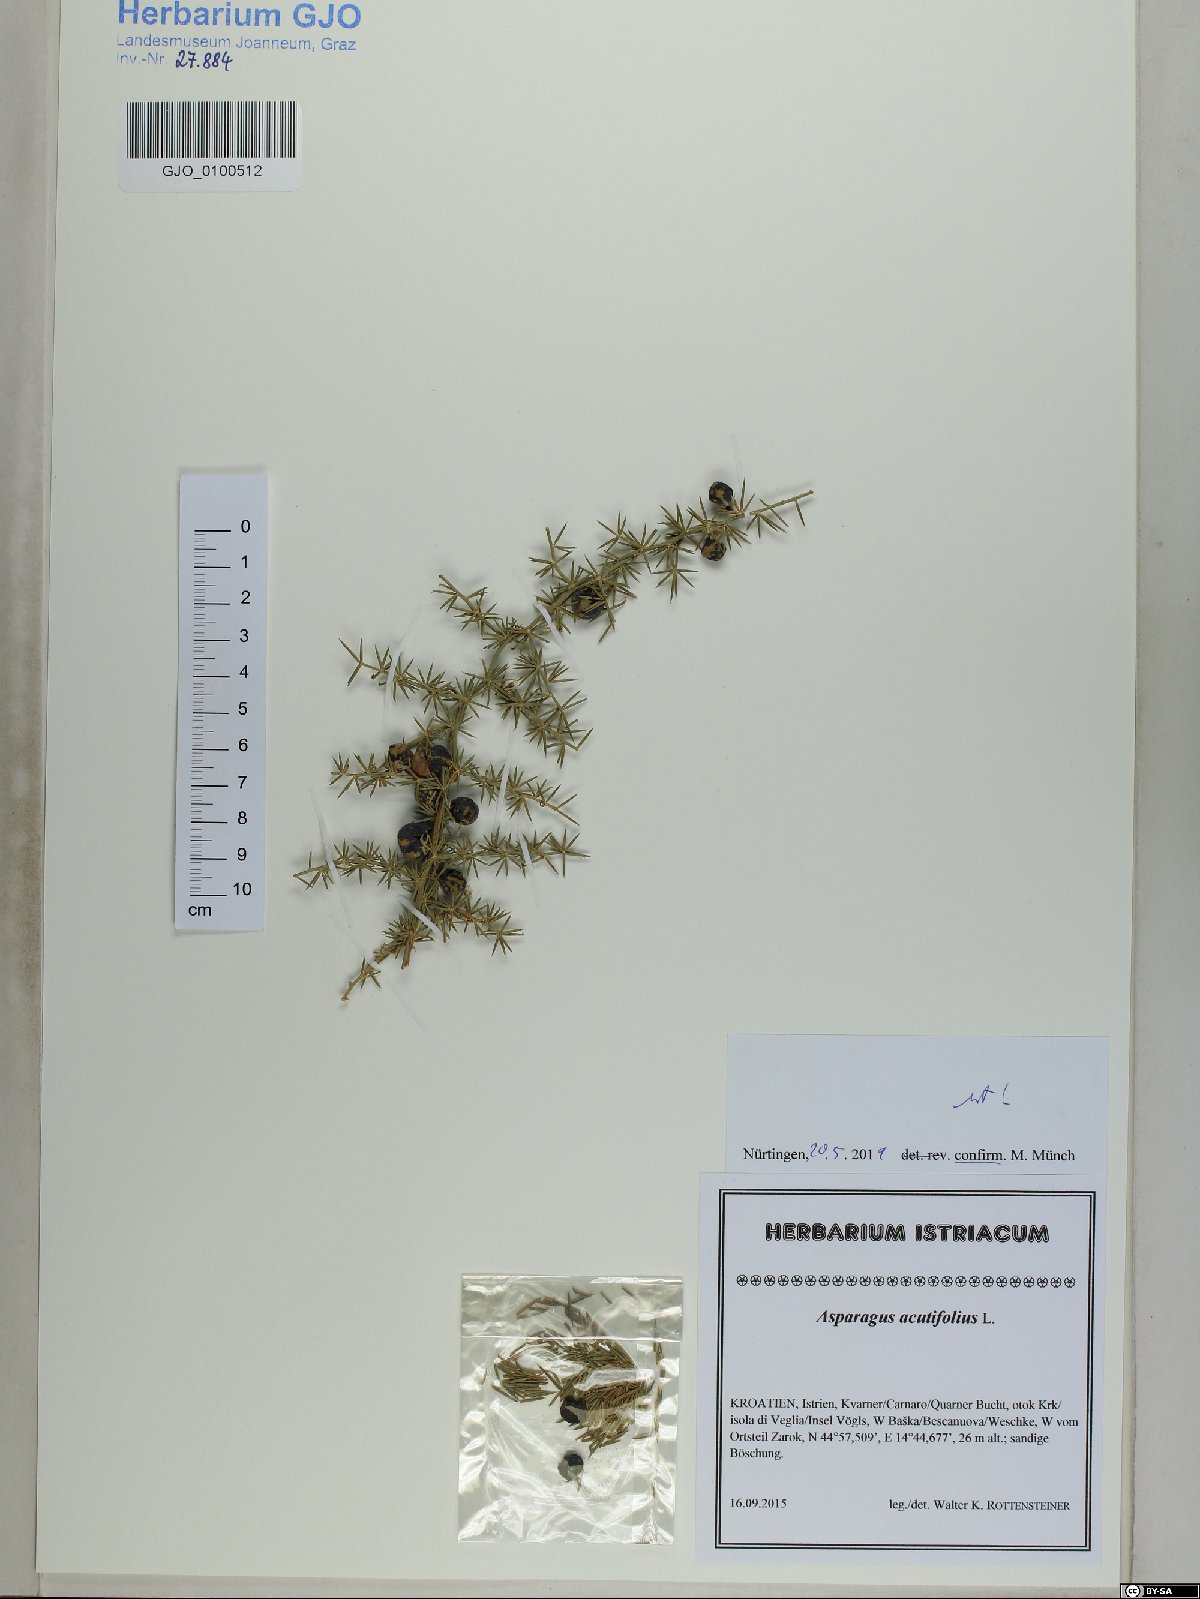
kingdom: Plantae
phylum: Tracheophyta
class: Liliopsida
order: Asparagales
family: Asparagaceae
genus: Asparagus
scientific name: Asparagus acutifolius
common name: Wild asparagus
